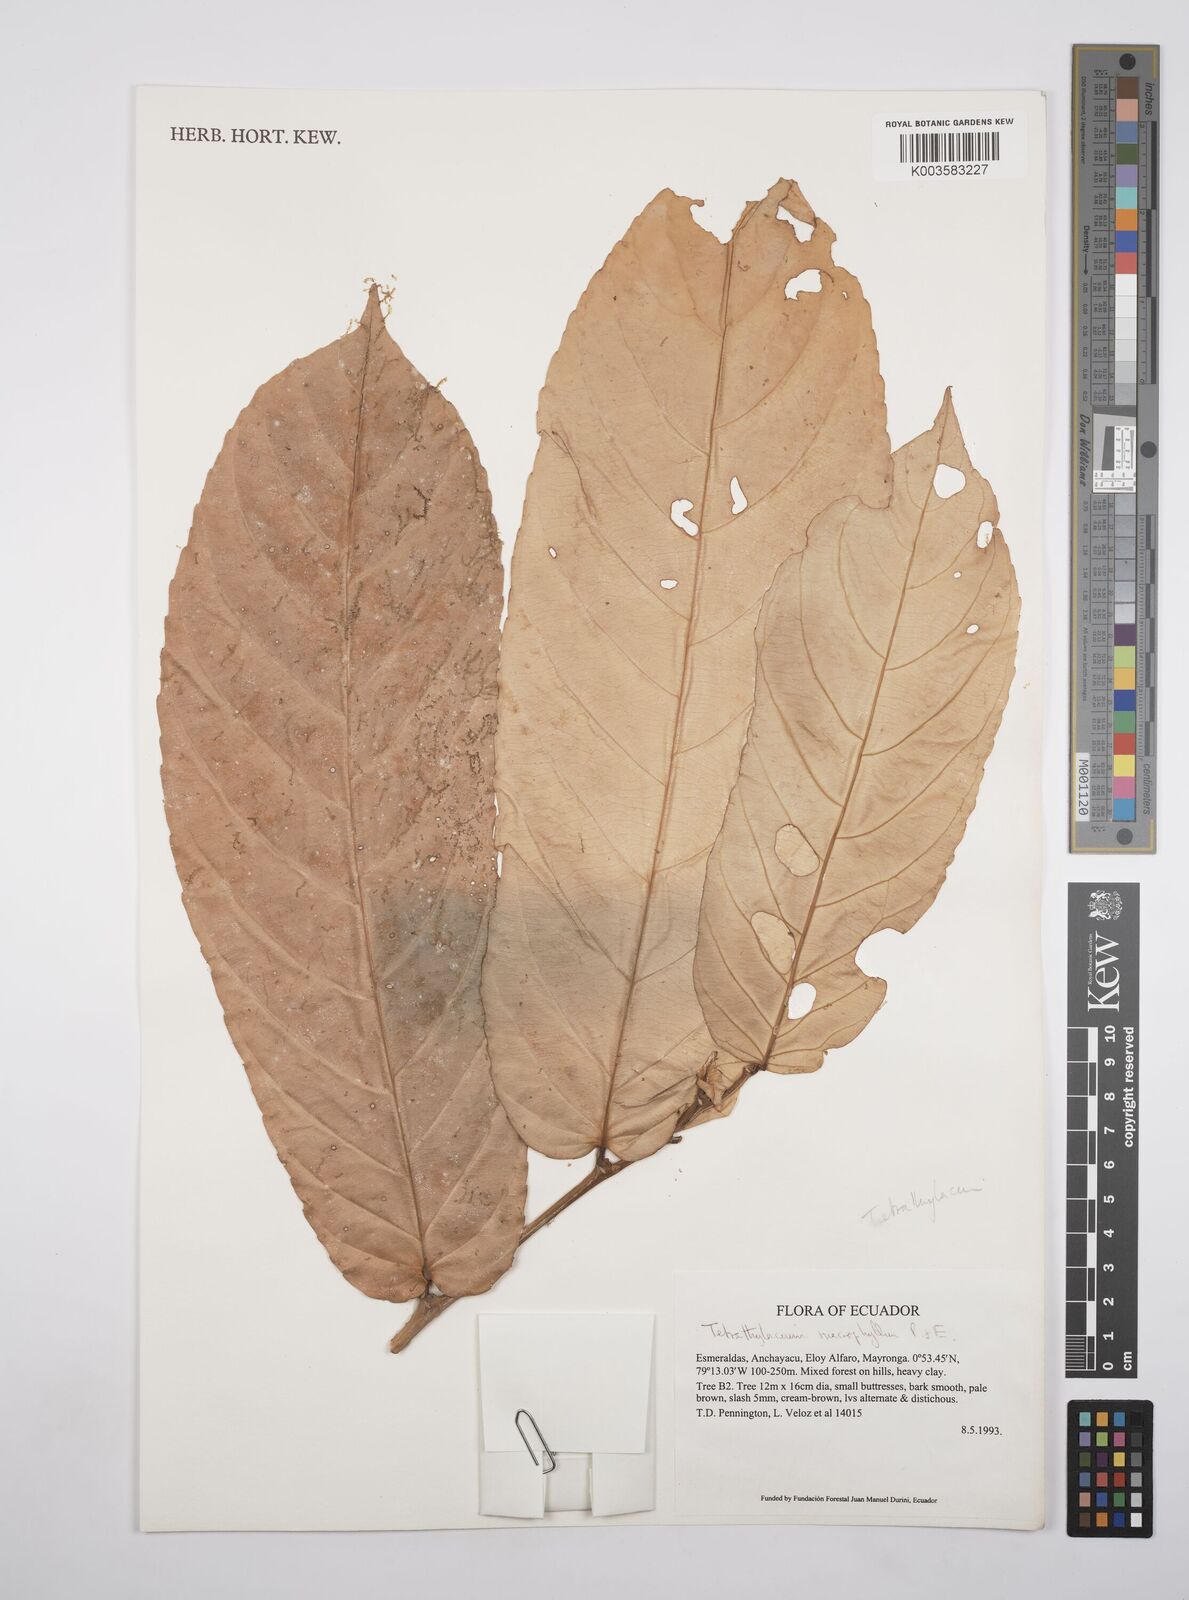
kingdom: Plantae
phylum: Tracheophyta
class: Magnoliopsida
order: Malpighiales
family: Salicaceae
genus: Tetrathylacium
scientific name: Tetrathylacium macrophyllum
